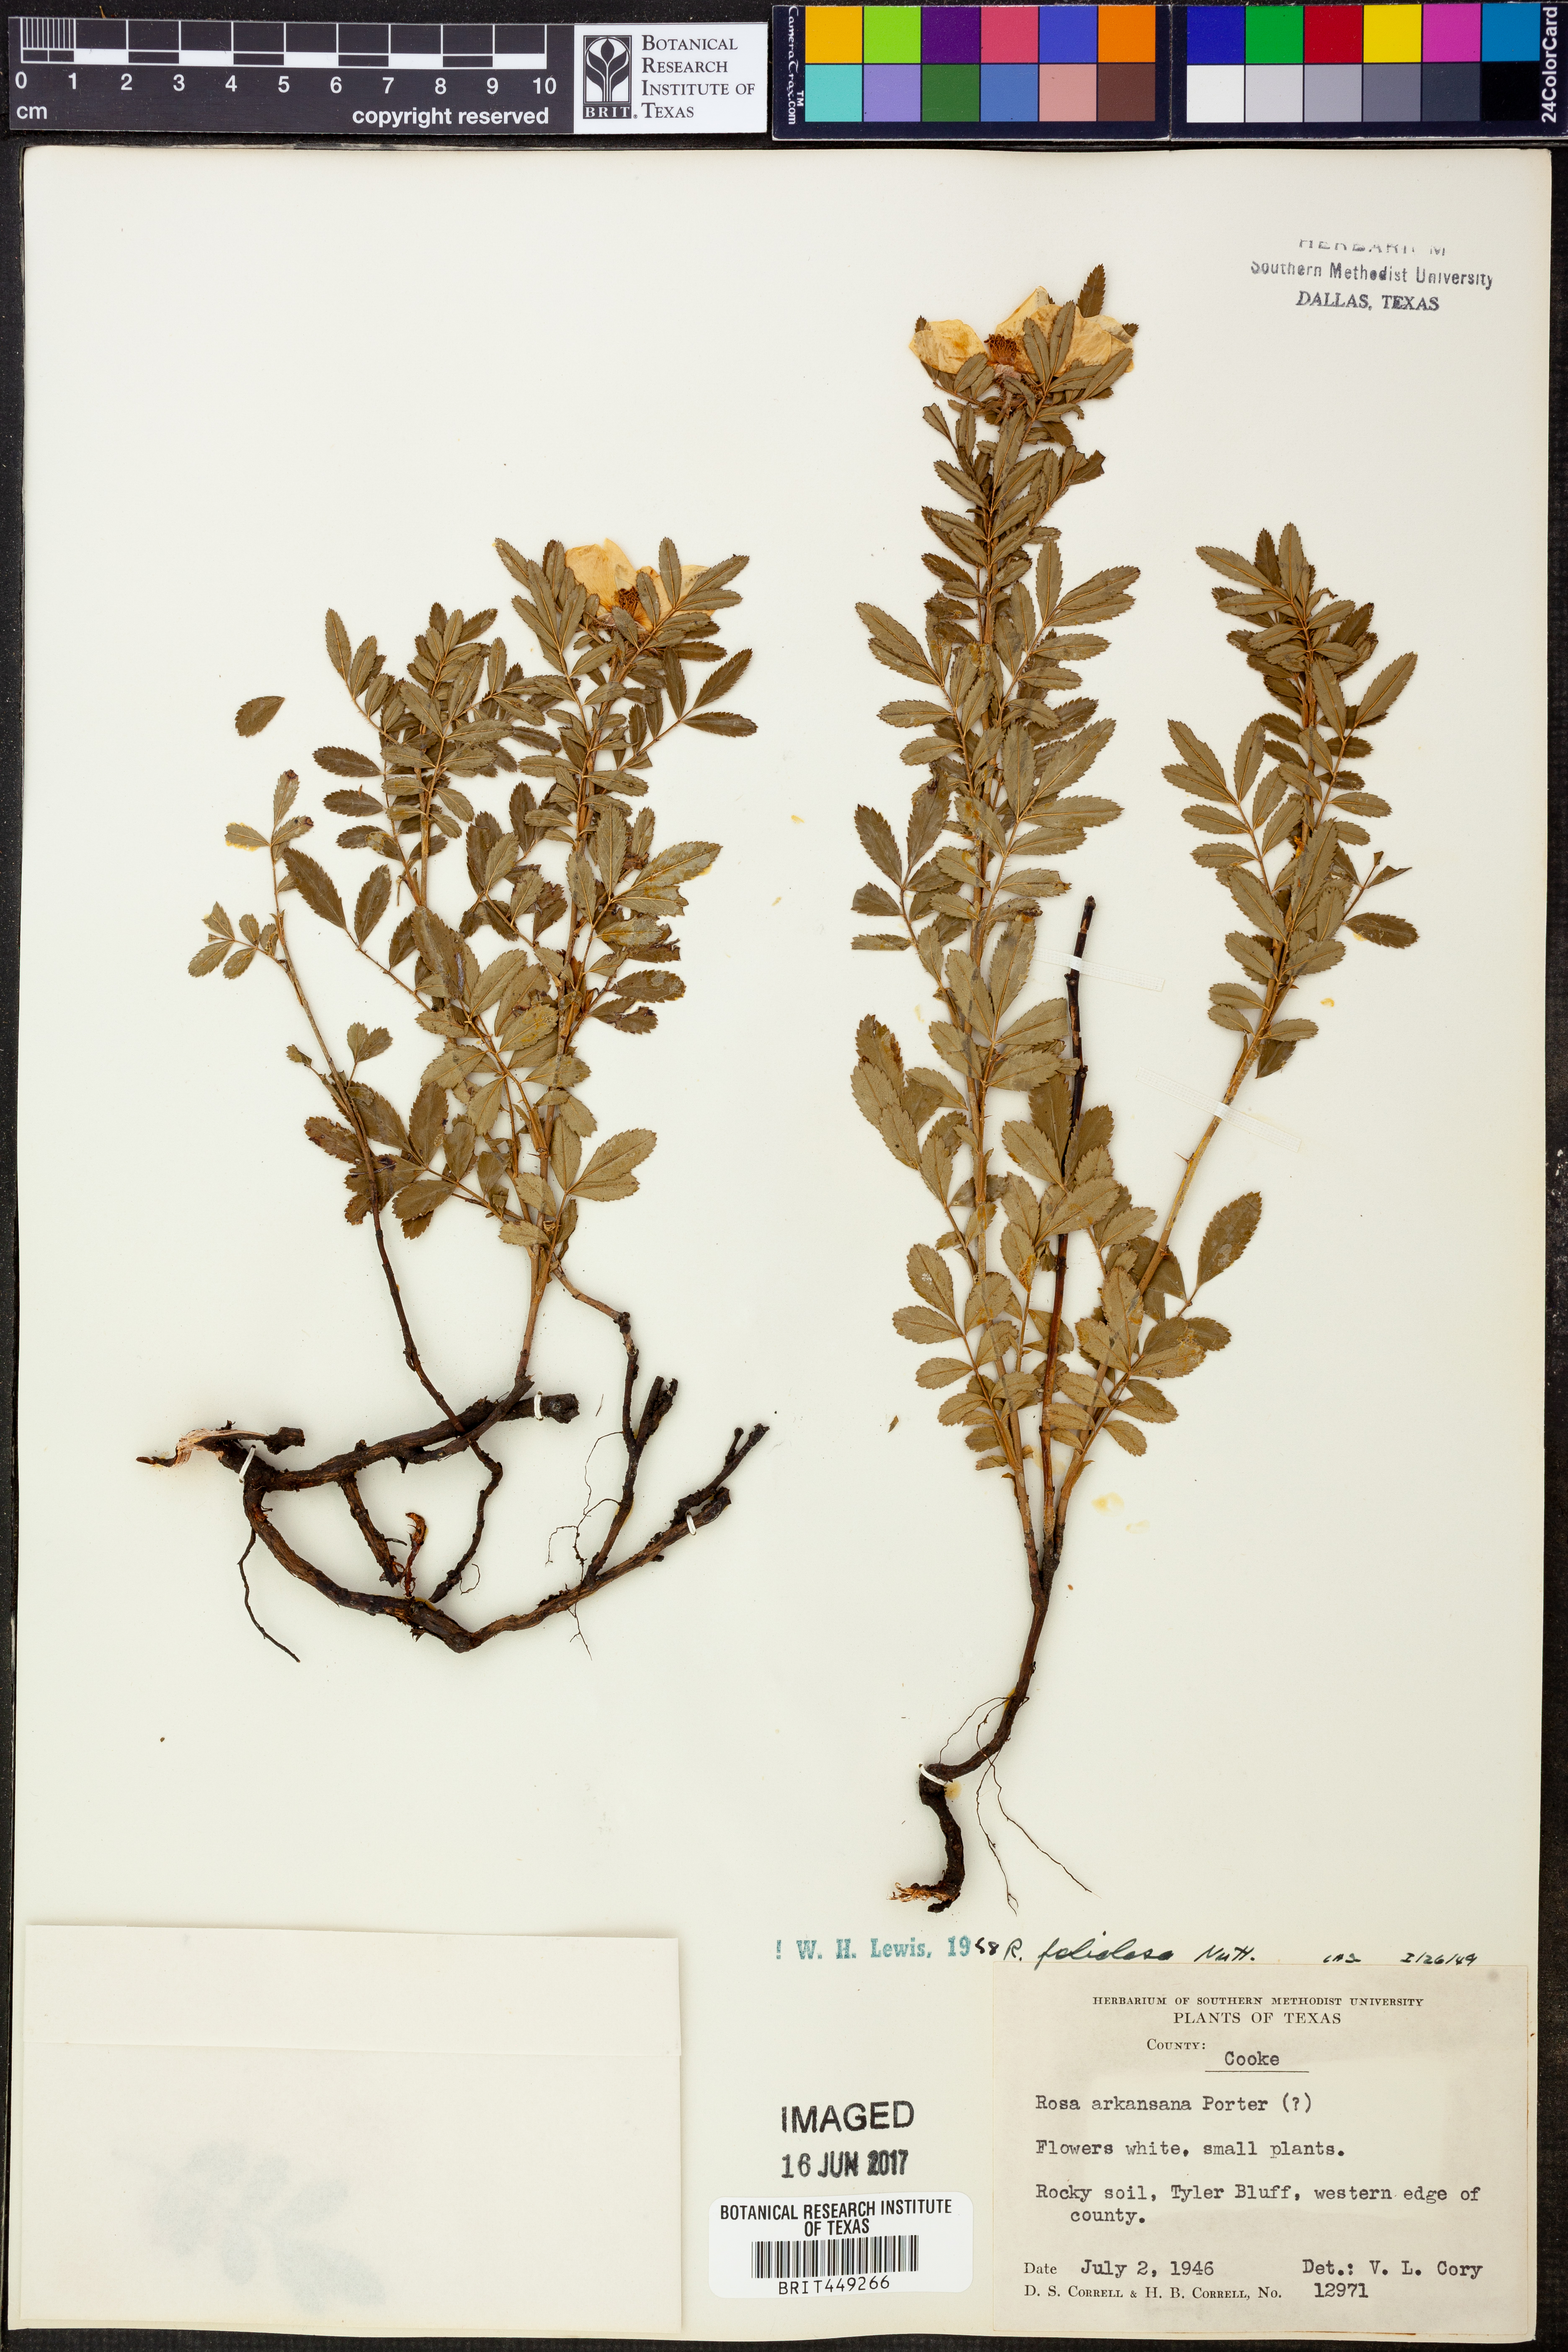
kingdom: Plantae
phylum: Tracheophyta
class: Magnoliopsida
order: Rosales
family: Rosaceae
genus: Rosa
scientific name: Rosa foliolosa
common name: White prairie rose
